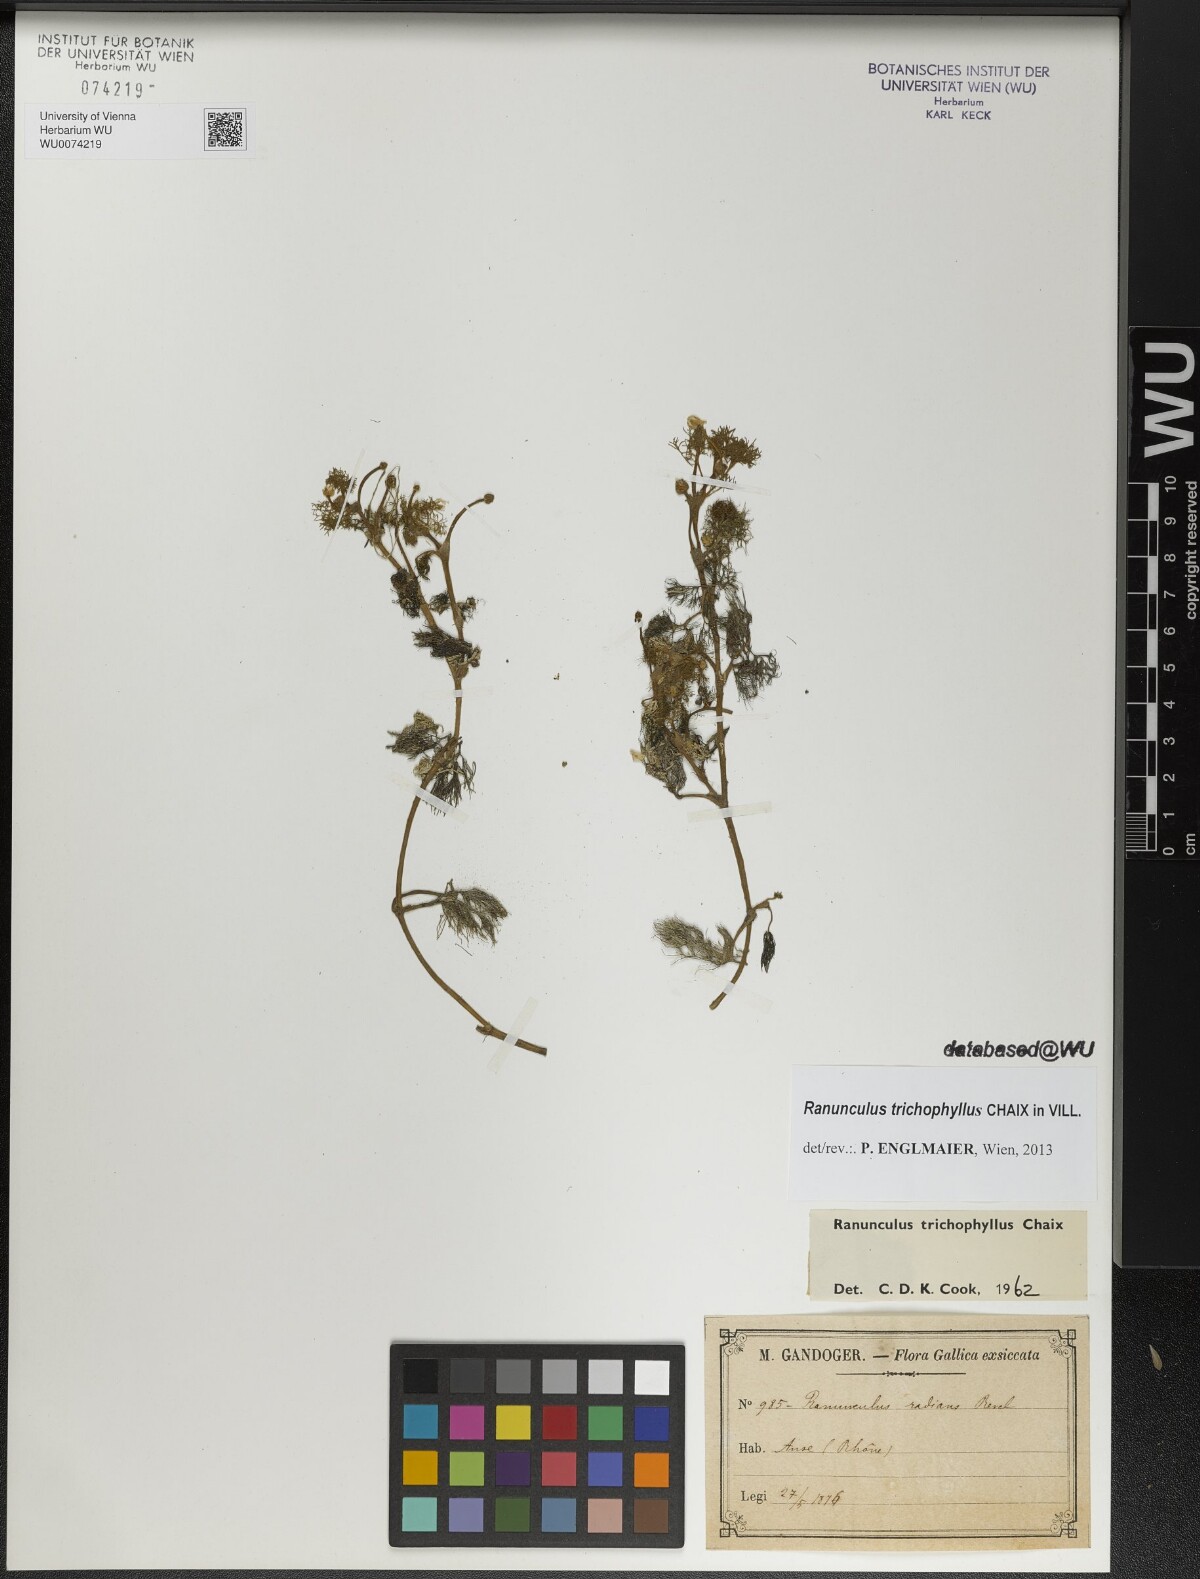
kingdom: Plantae
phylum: Tracheophyta
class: Magnoliopsida
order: Ranunculales
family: Ranunculaceae
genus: Ranunculus
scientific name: Ranunculus trichophyllus
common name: Thread-leaved water-crowfoot
